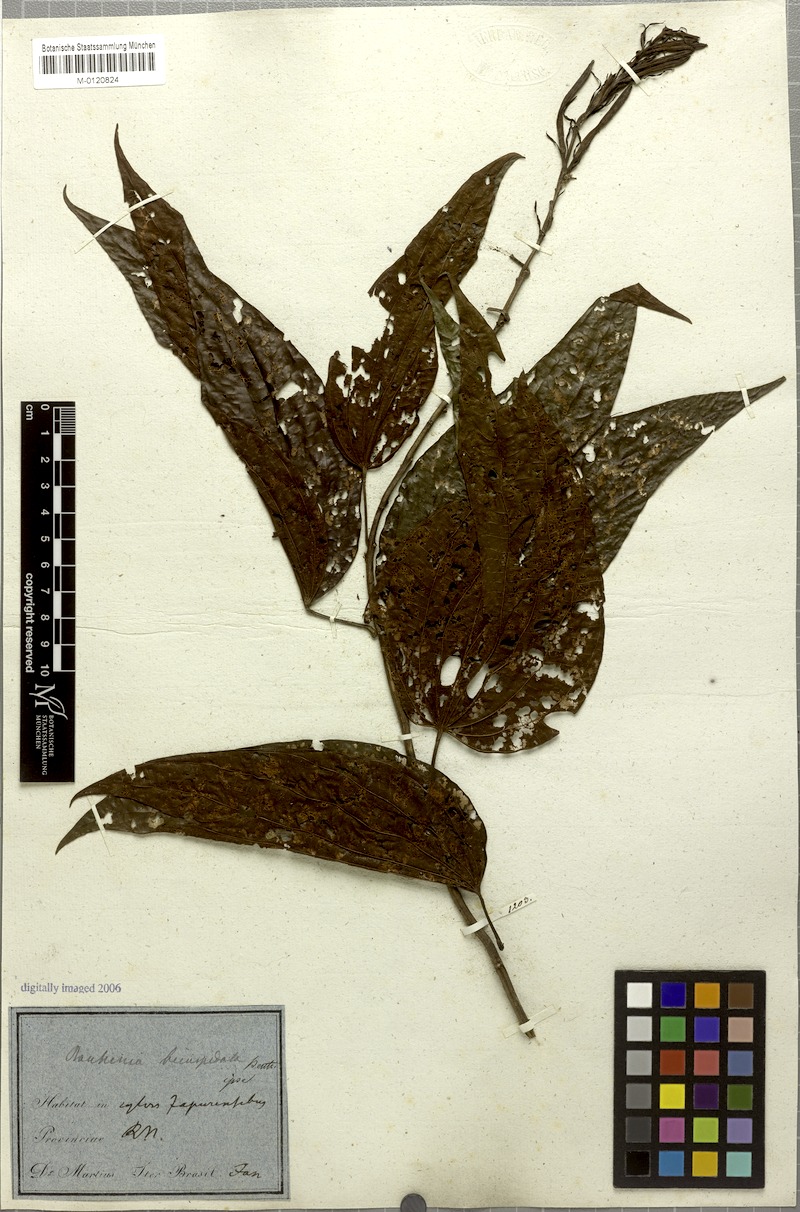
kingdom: Plantae
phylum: Tracheophyta
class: Magnoliopsida
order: Fabales
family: Fabaceae
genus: Bauhinia
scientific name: Bauhinia longicuspis
